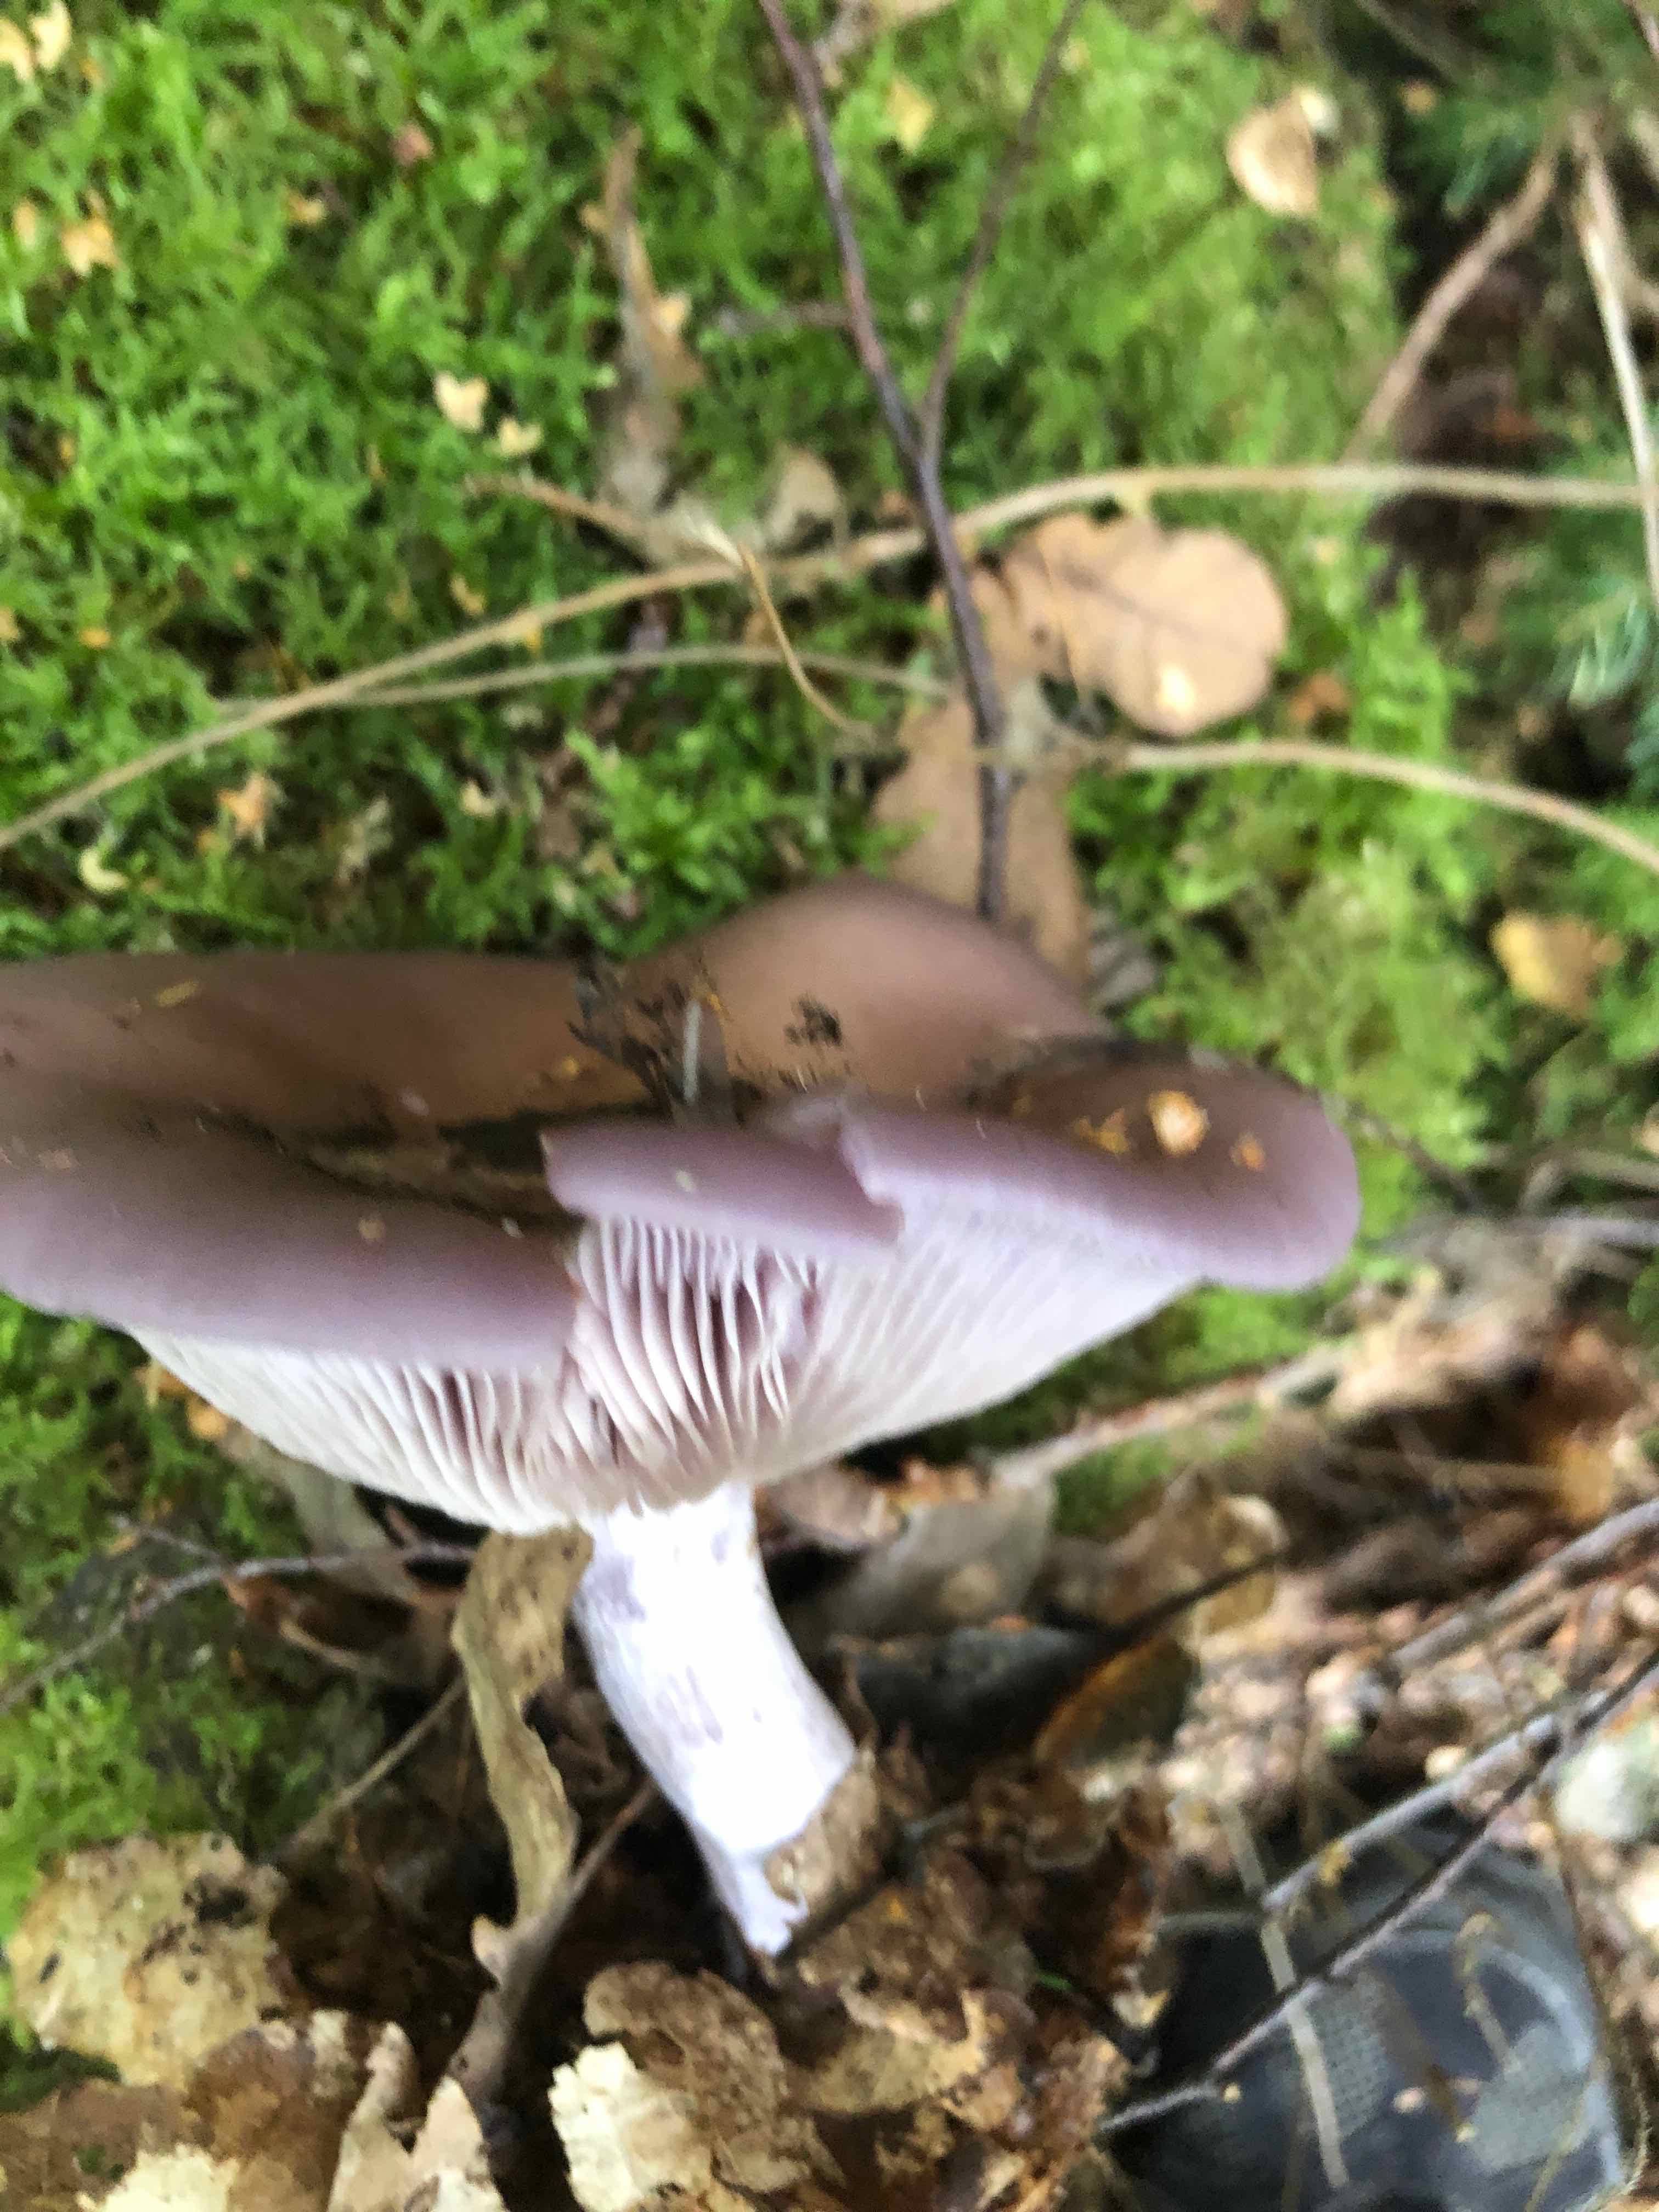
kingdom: Fungi
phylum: Basidiomycota
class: Agaricomycetes
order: Agaricales
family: Tricholomataceae
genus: Lepista
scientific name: Lepista
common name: hekseringshat
